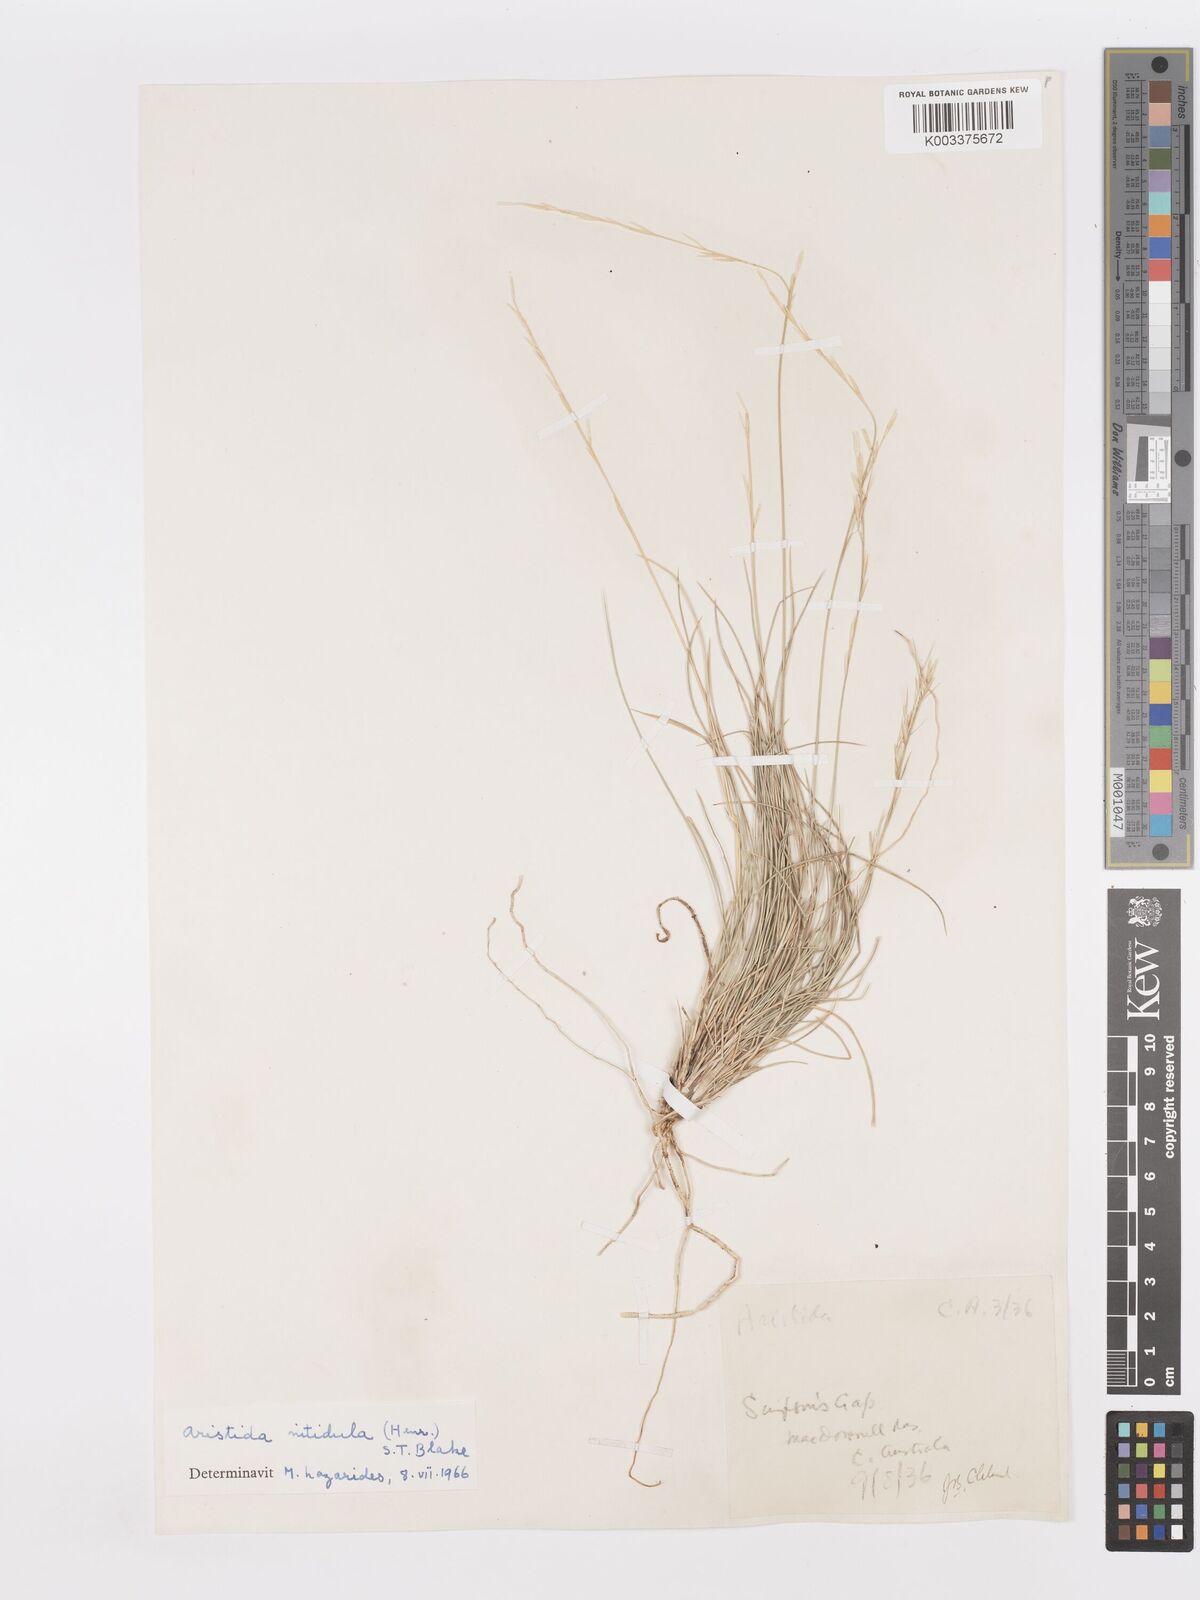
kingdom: Plantae
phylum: Tracheophyta
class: Liliopsida
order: Poales
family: Poaceae
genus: Aristida
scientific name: Aristida nitidula
